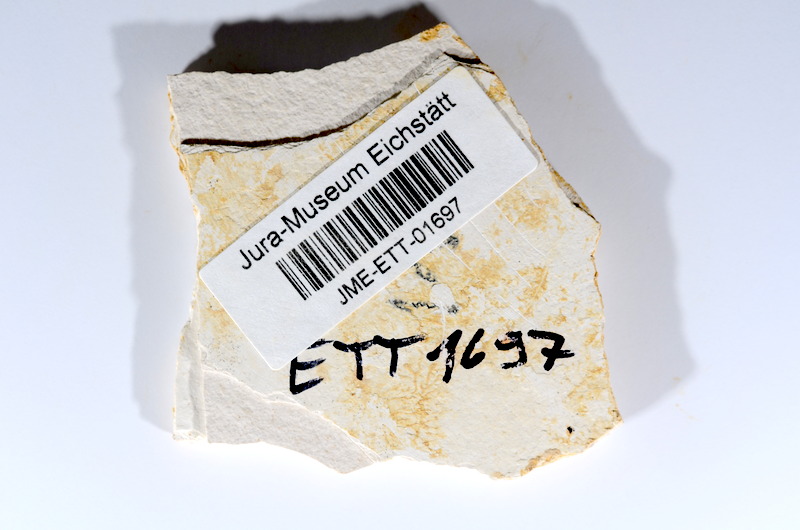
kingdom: Animalia
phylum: Chordata
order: Salmoniformes
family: Orthogonikleithridae
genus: Orthogonikleithrus
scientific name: Orthogonikleithrus hoelli
